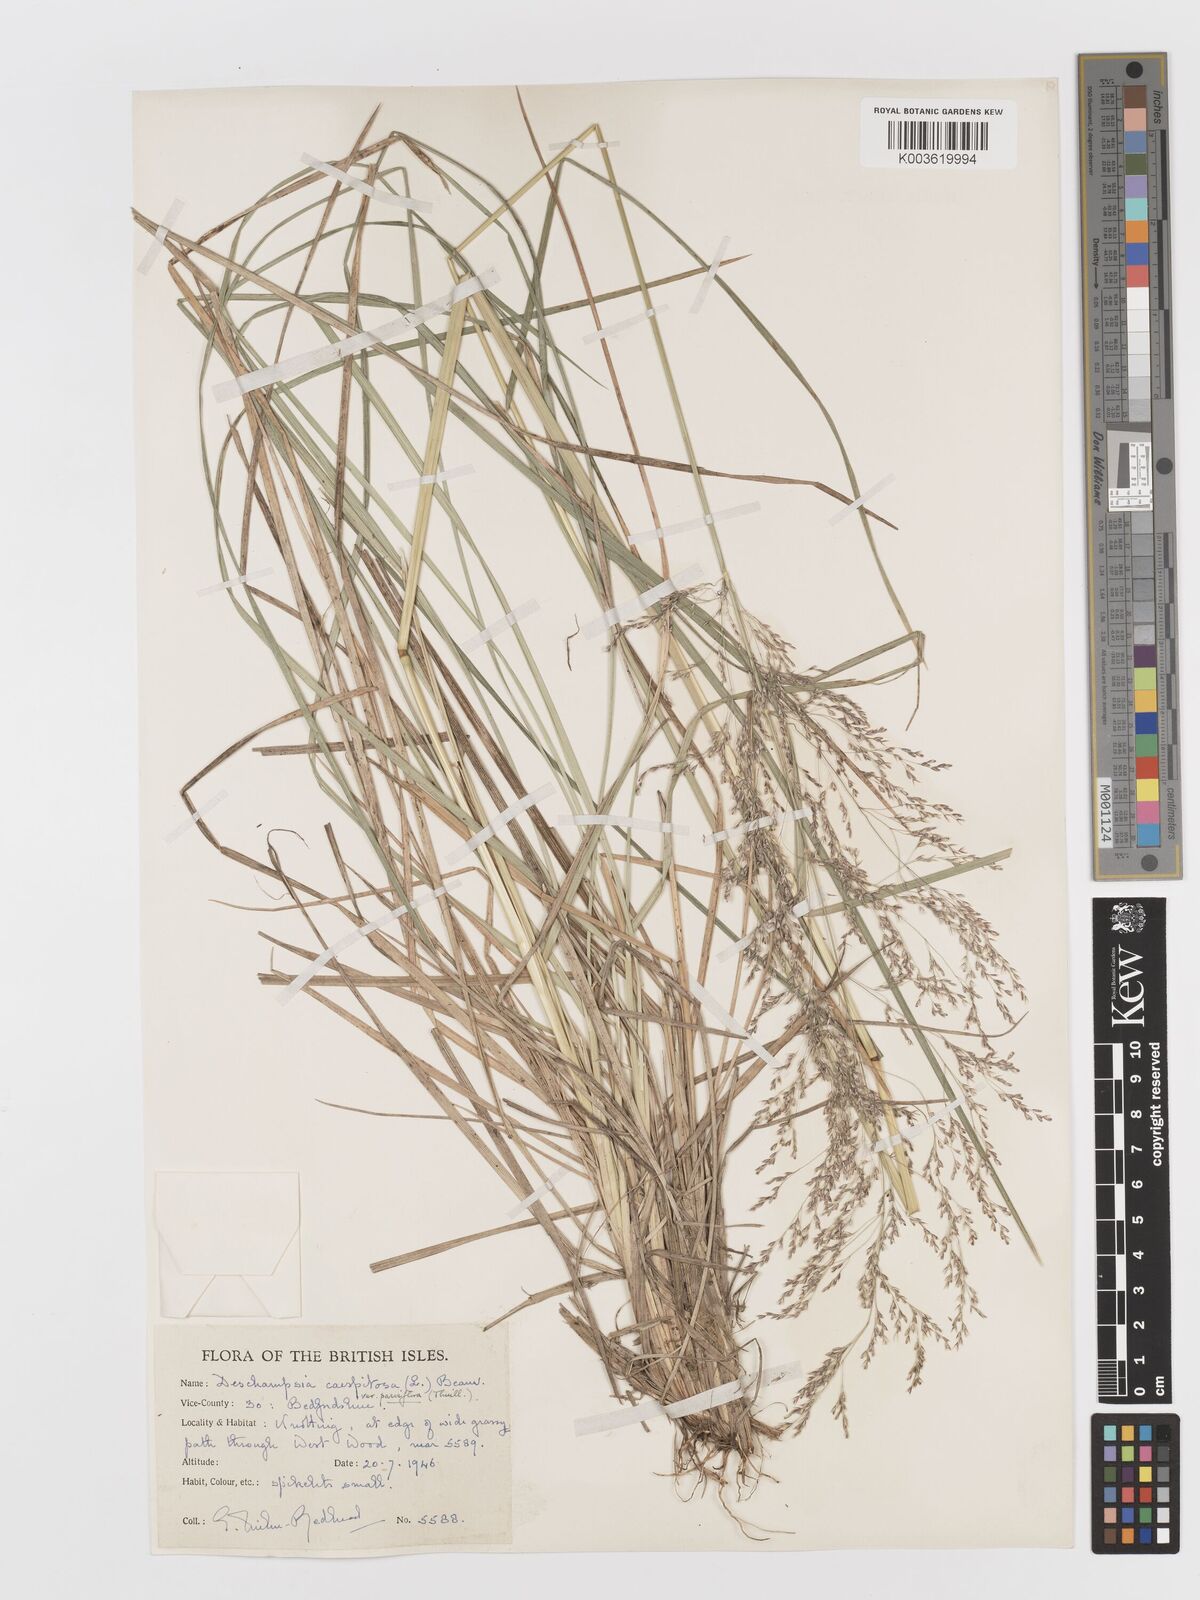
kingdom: Plantae
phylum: Tracheophyta
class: Liliopsida
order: Poales
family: Poaceae
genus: Deschampsia
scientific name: Deschampsia cespitosa
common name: Tufted hair-grass
